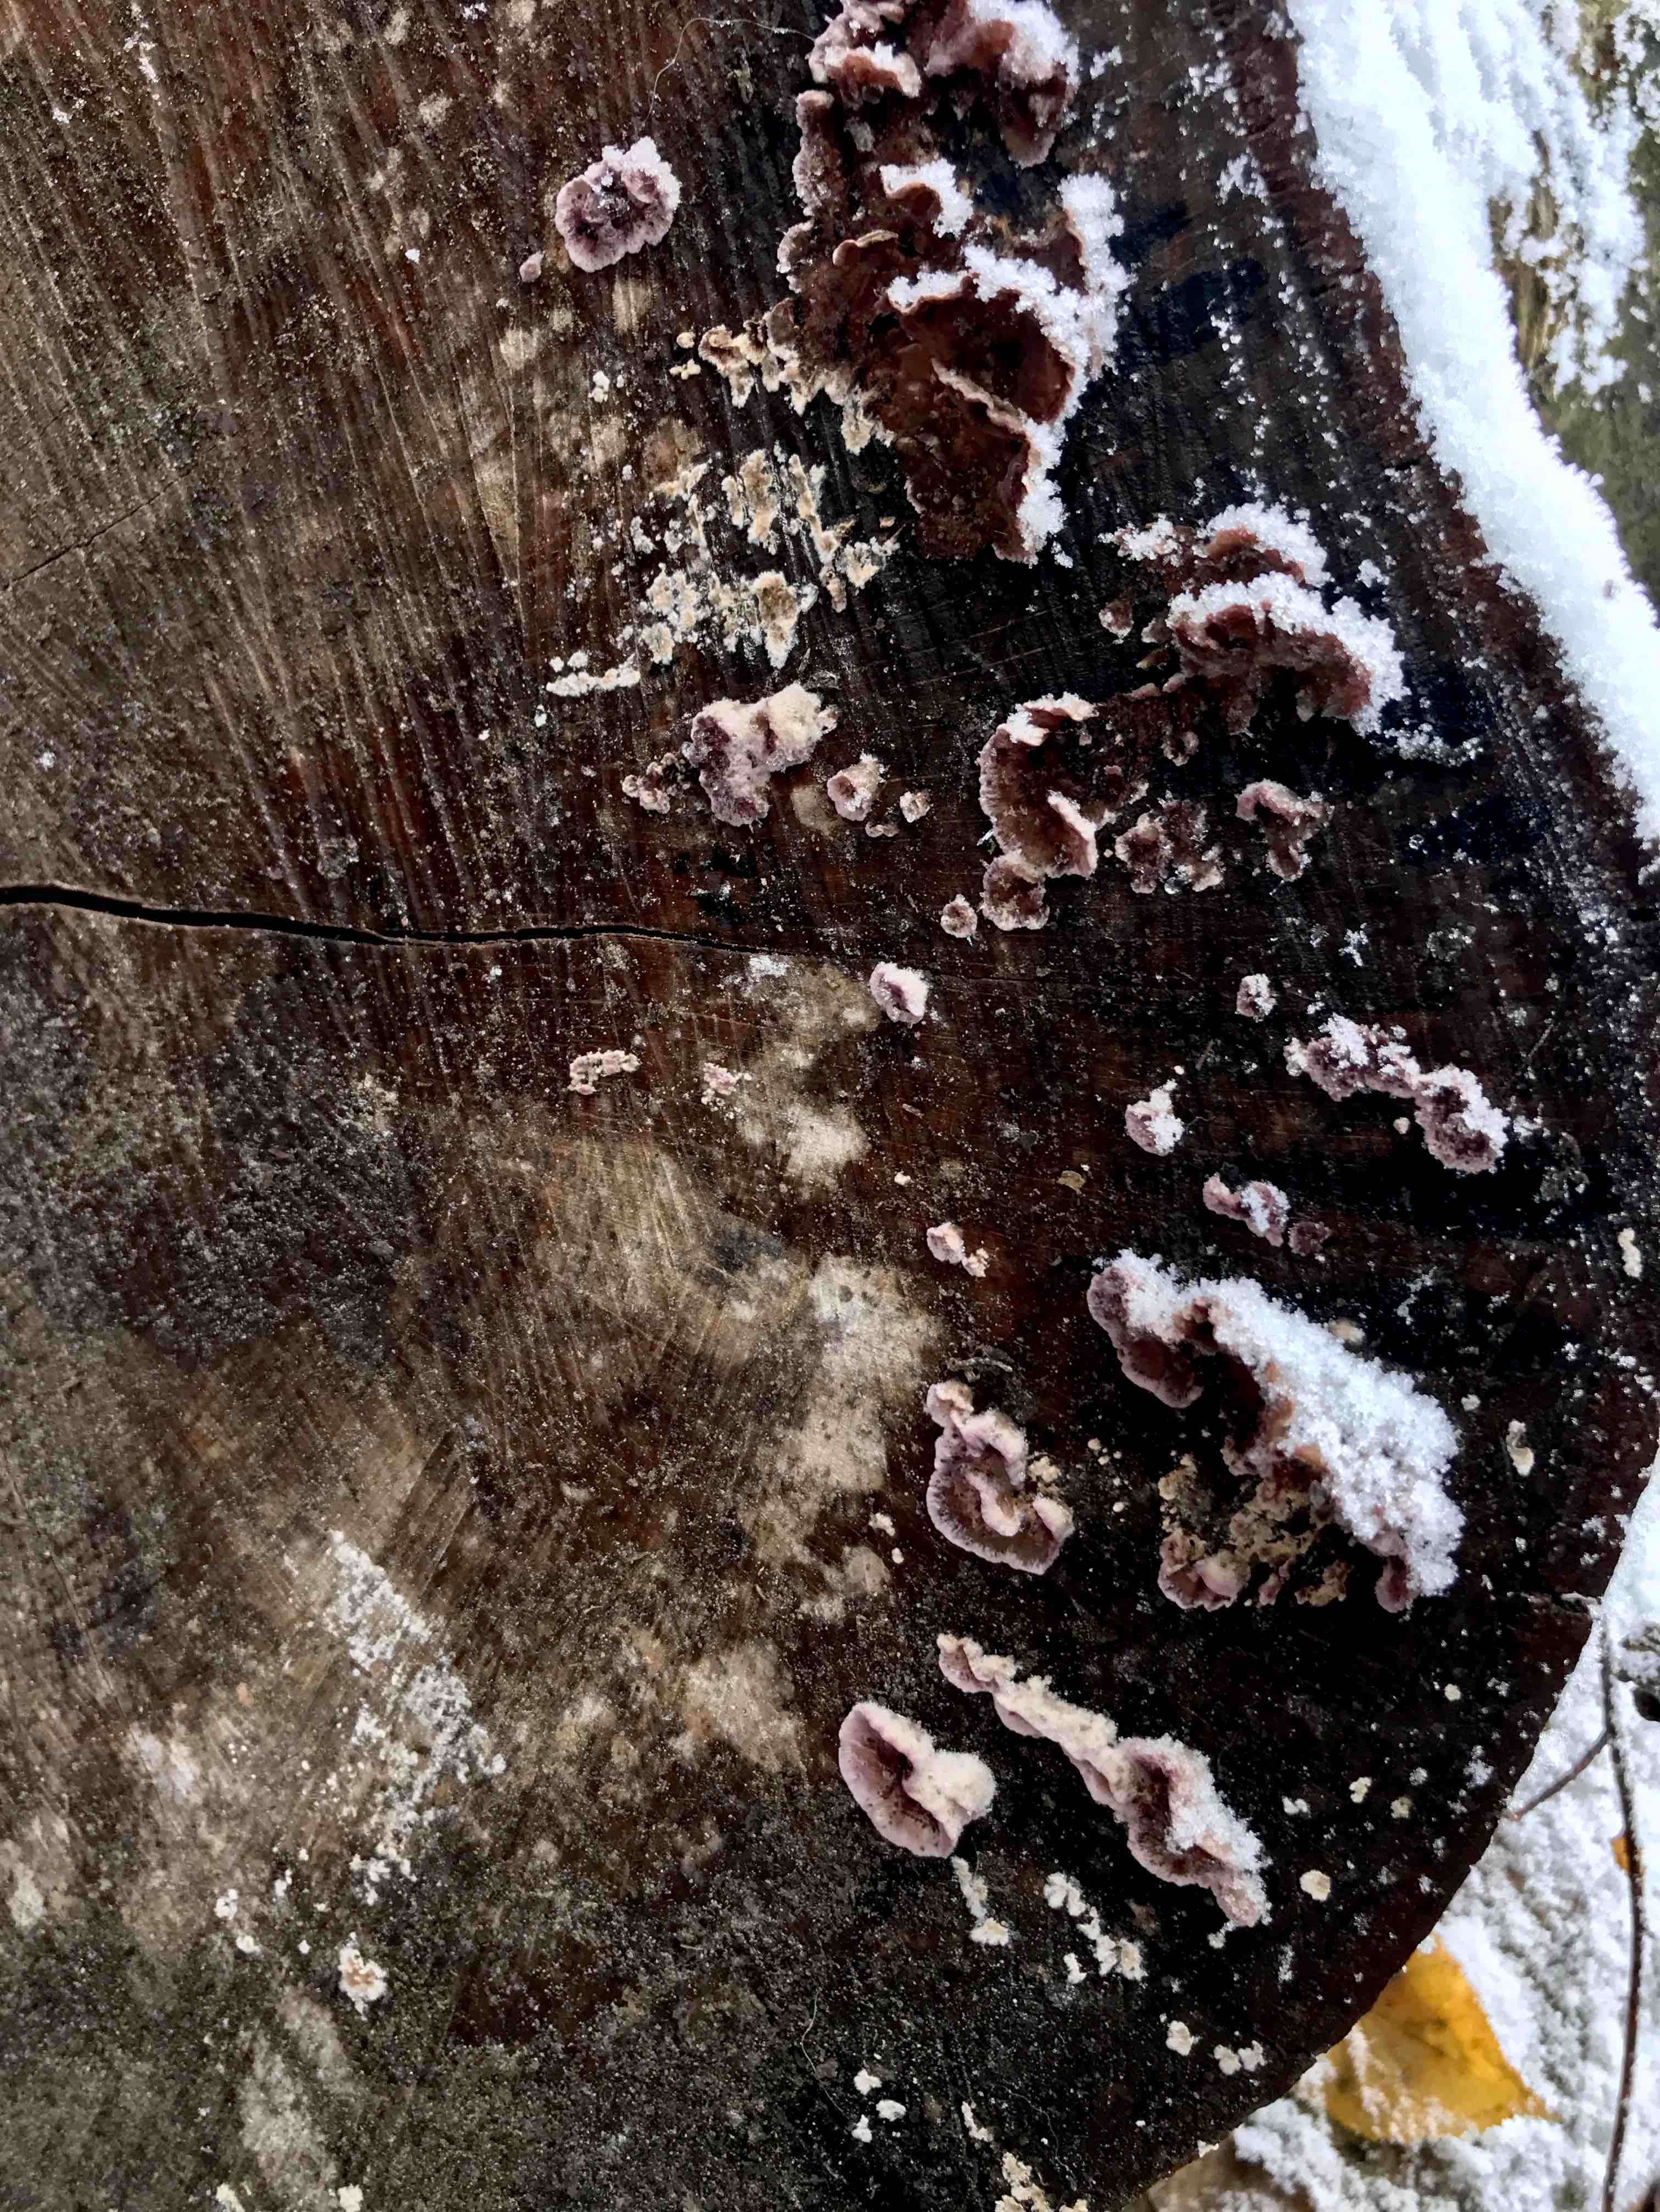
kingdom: Fungi
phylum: Basidiomycota
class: Agaricomycetes
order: Agaricales
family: Cyphellaceae
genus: Chondrostereum
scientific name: Chondrostereum purpureum
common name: purpurlædersvamp
